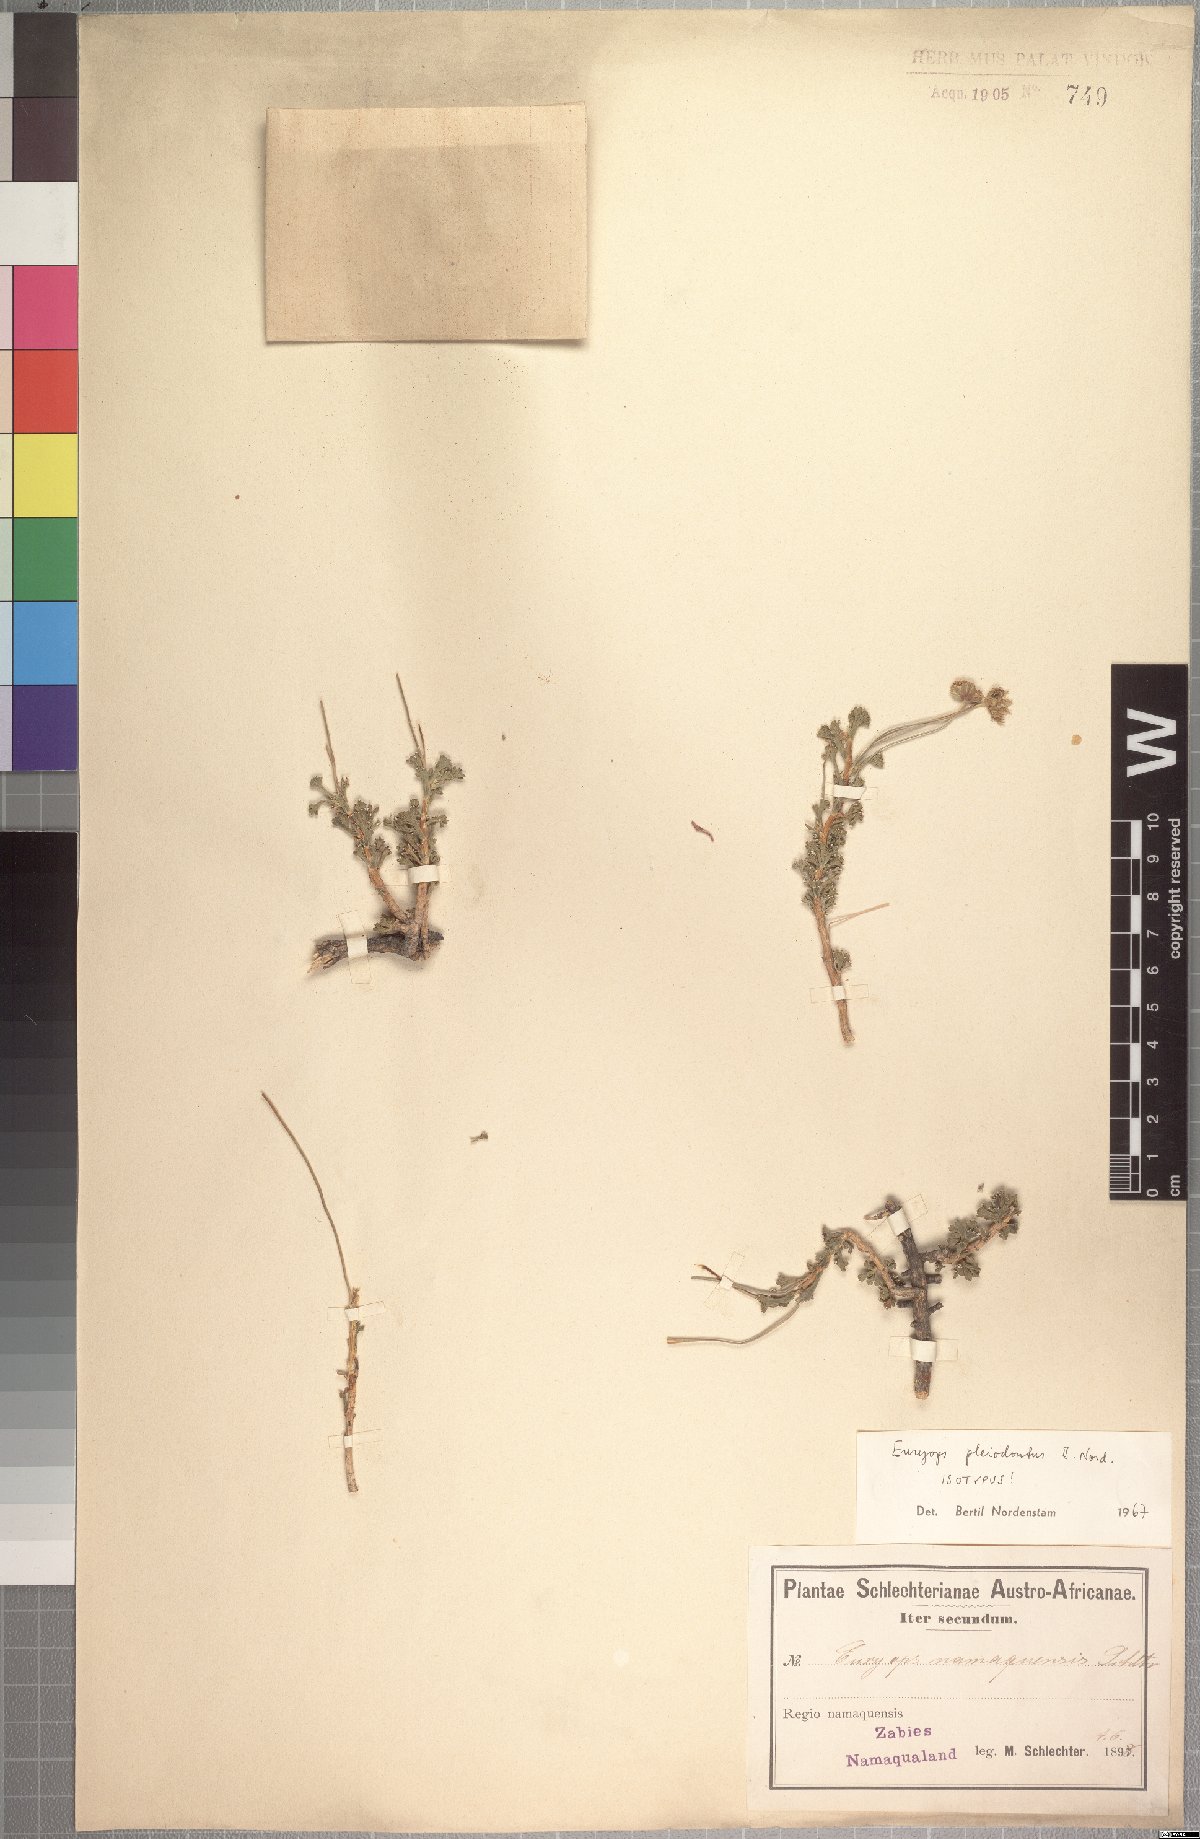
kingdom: Plantae
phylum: Tracheophyta
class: Magnoliopsida
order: Asterales
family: Asteraceae
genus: Euryops
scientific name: Euryops pleiodontus
